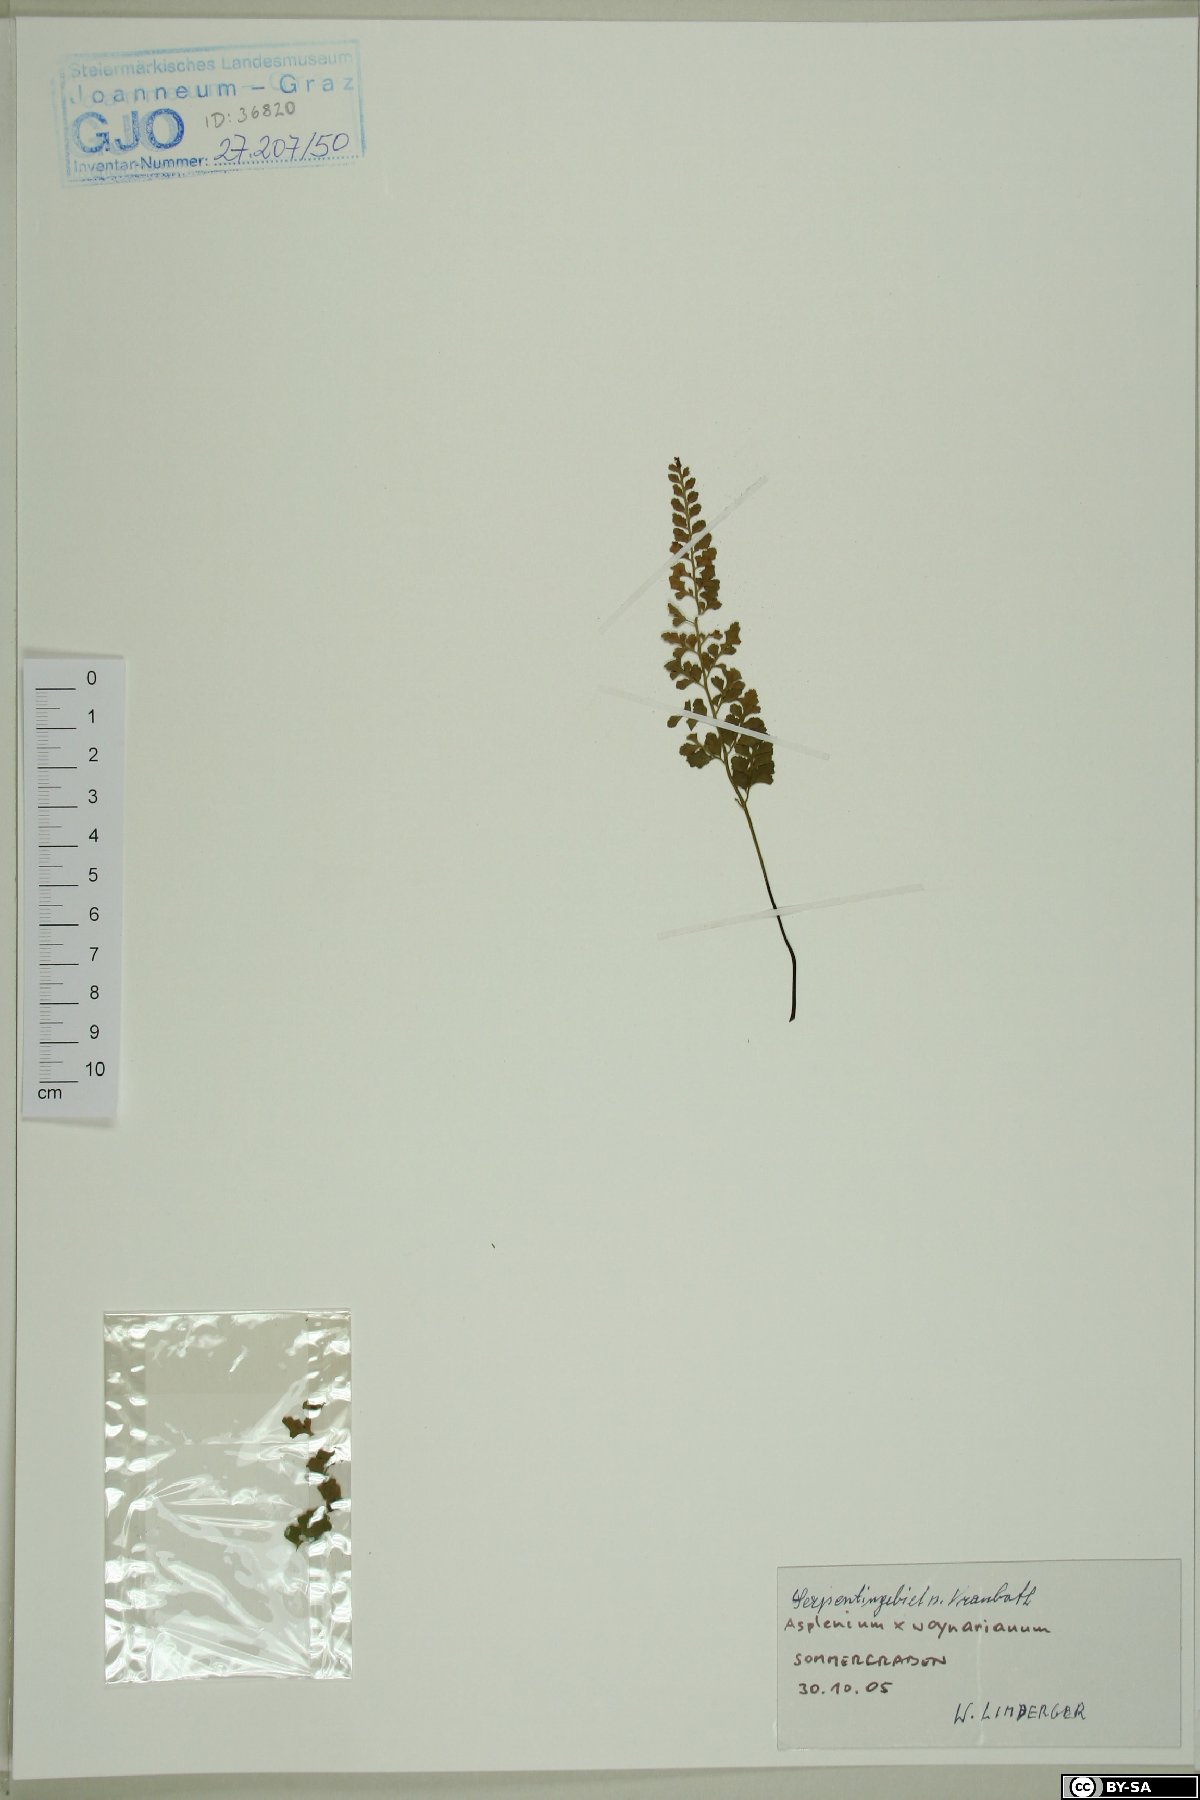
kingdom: Plantae
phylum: Tracheophyta
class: Polypodiopsida
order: Polypodiales
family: Aspleniaceae
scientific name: Aspleniaceae
